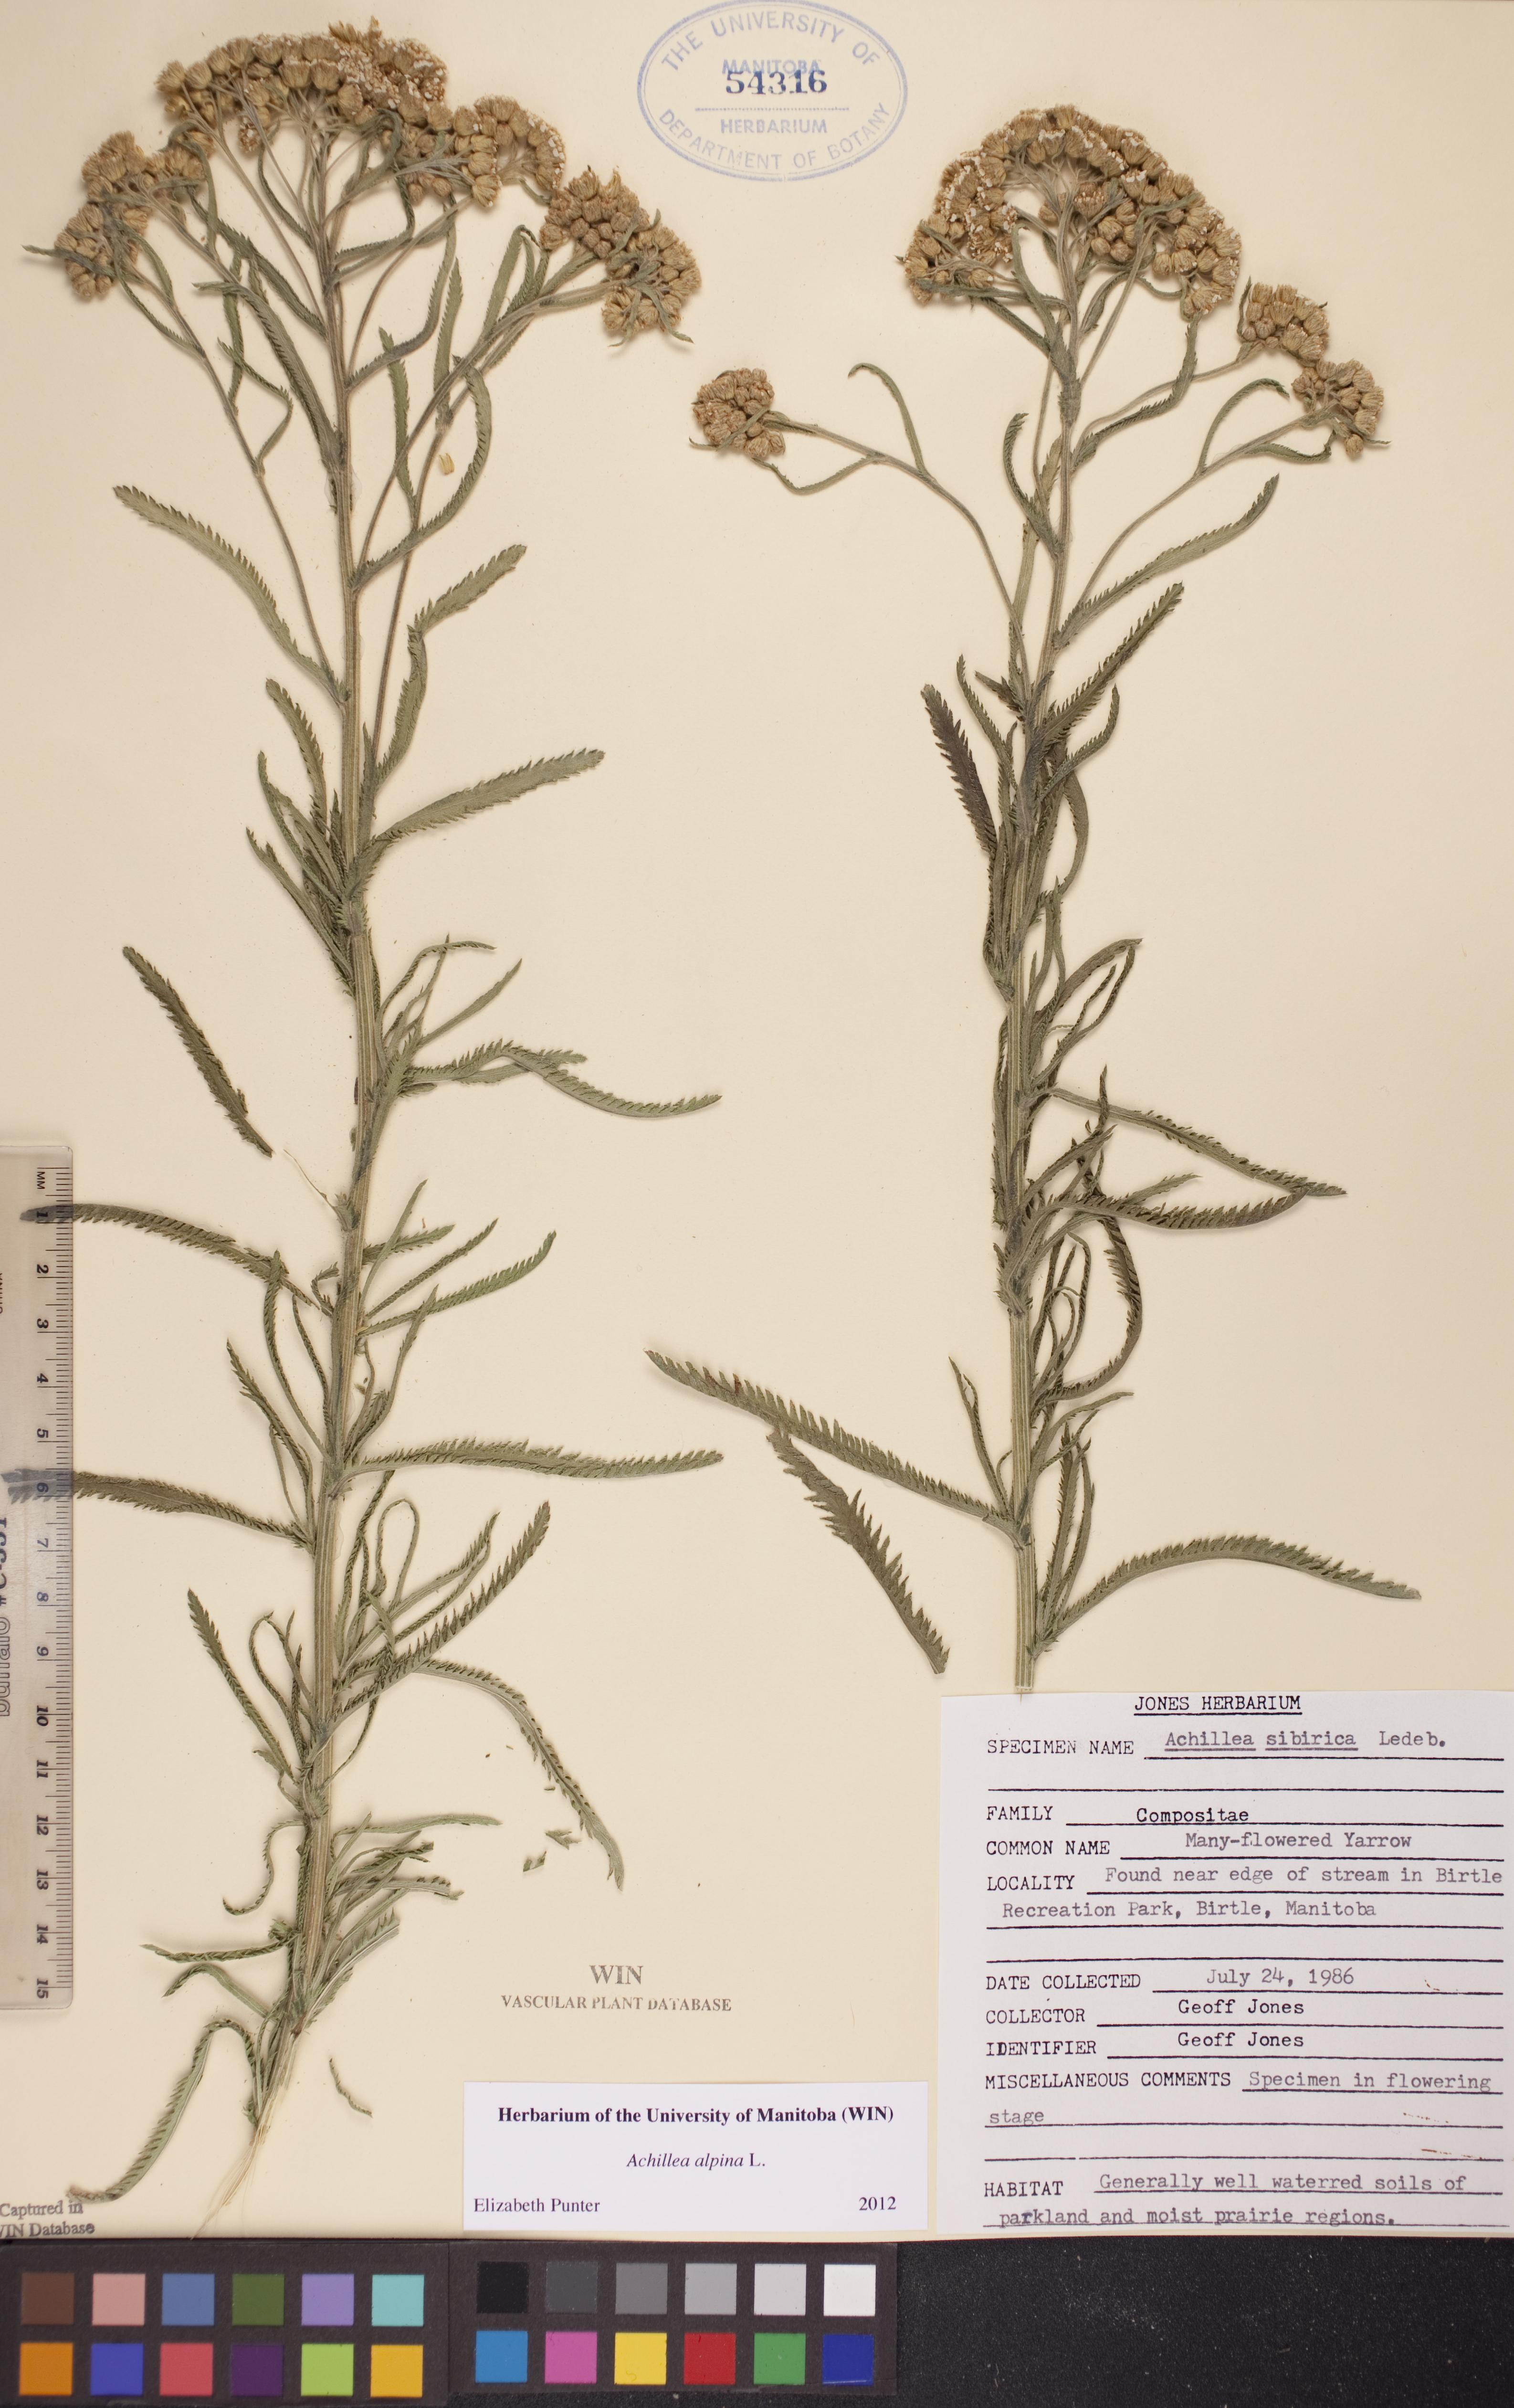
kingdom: Plantae
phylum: Tracheophyta
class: Magnoliopsida
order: Asterales
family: Asteraceae
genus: Achillea
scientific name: Achillea alpina
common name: Siberian yarrow
